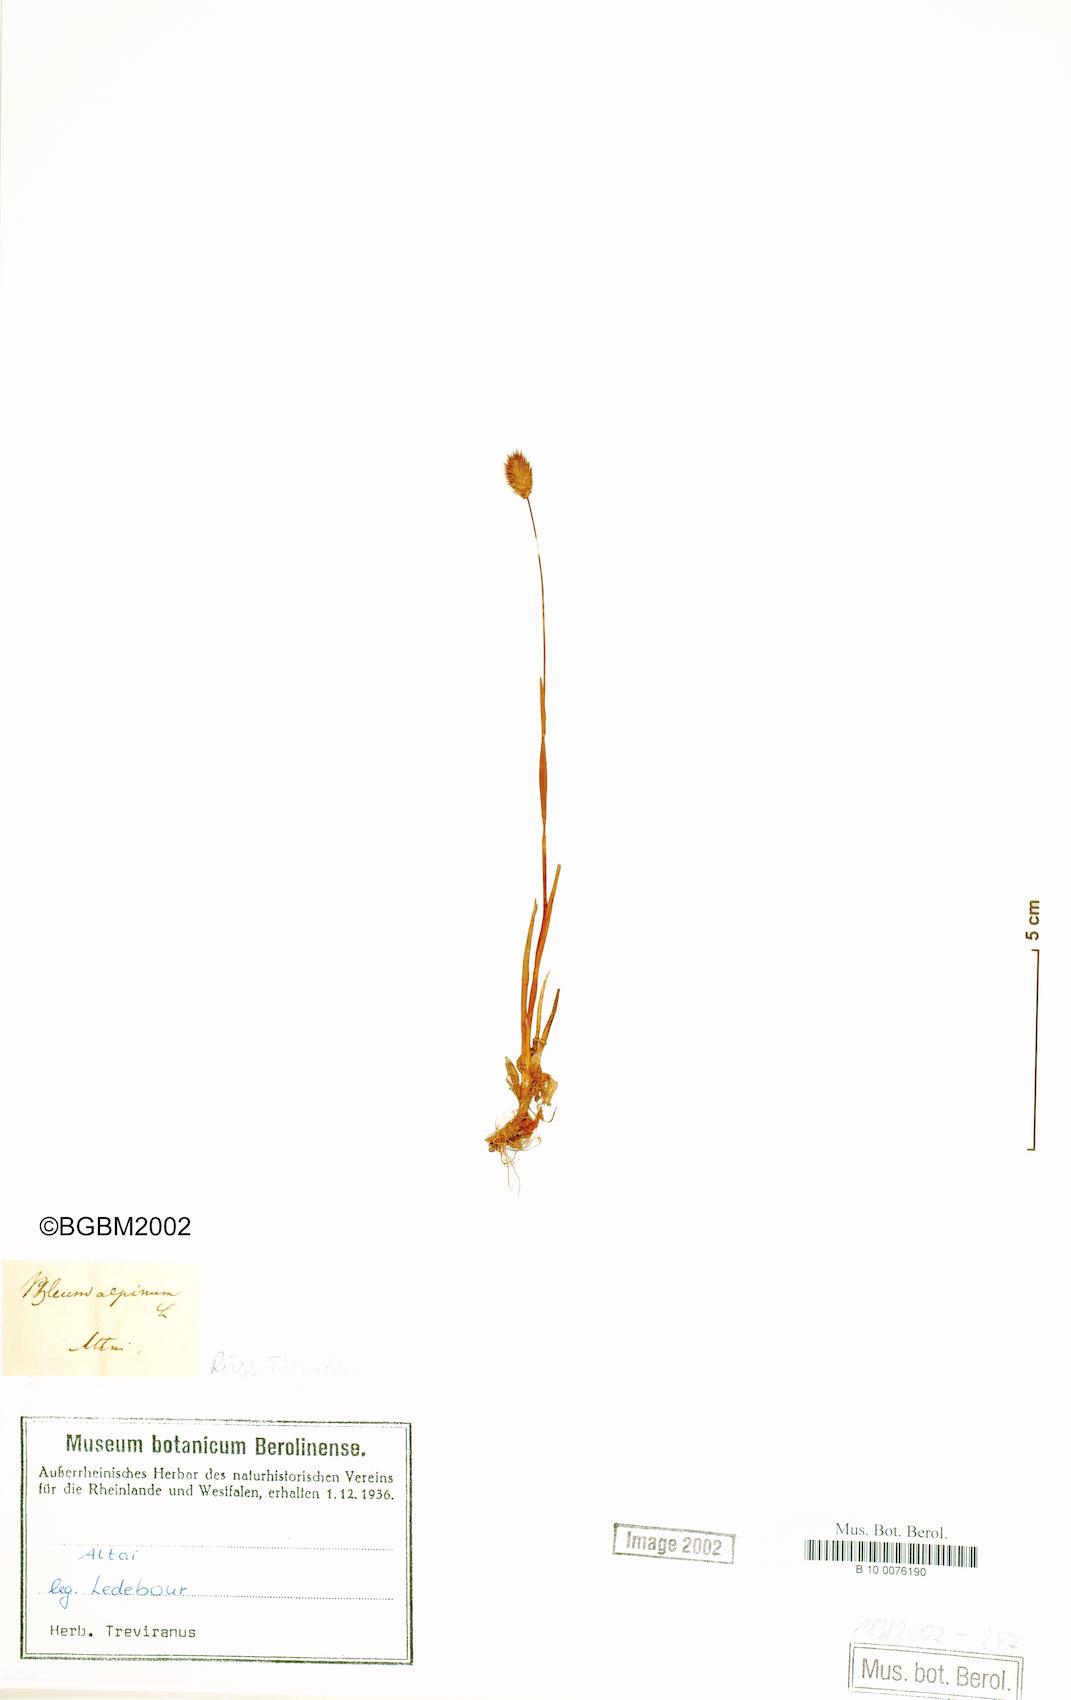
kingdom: Plantae
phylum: Tracheophyta
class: Liliopsida
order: Poales
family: Poaceae
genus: Phleum
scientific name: Phleum alpinum
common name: Alpine cat's-tail
